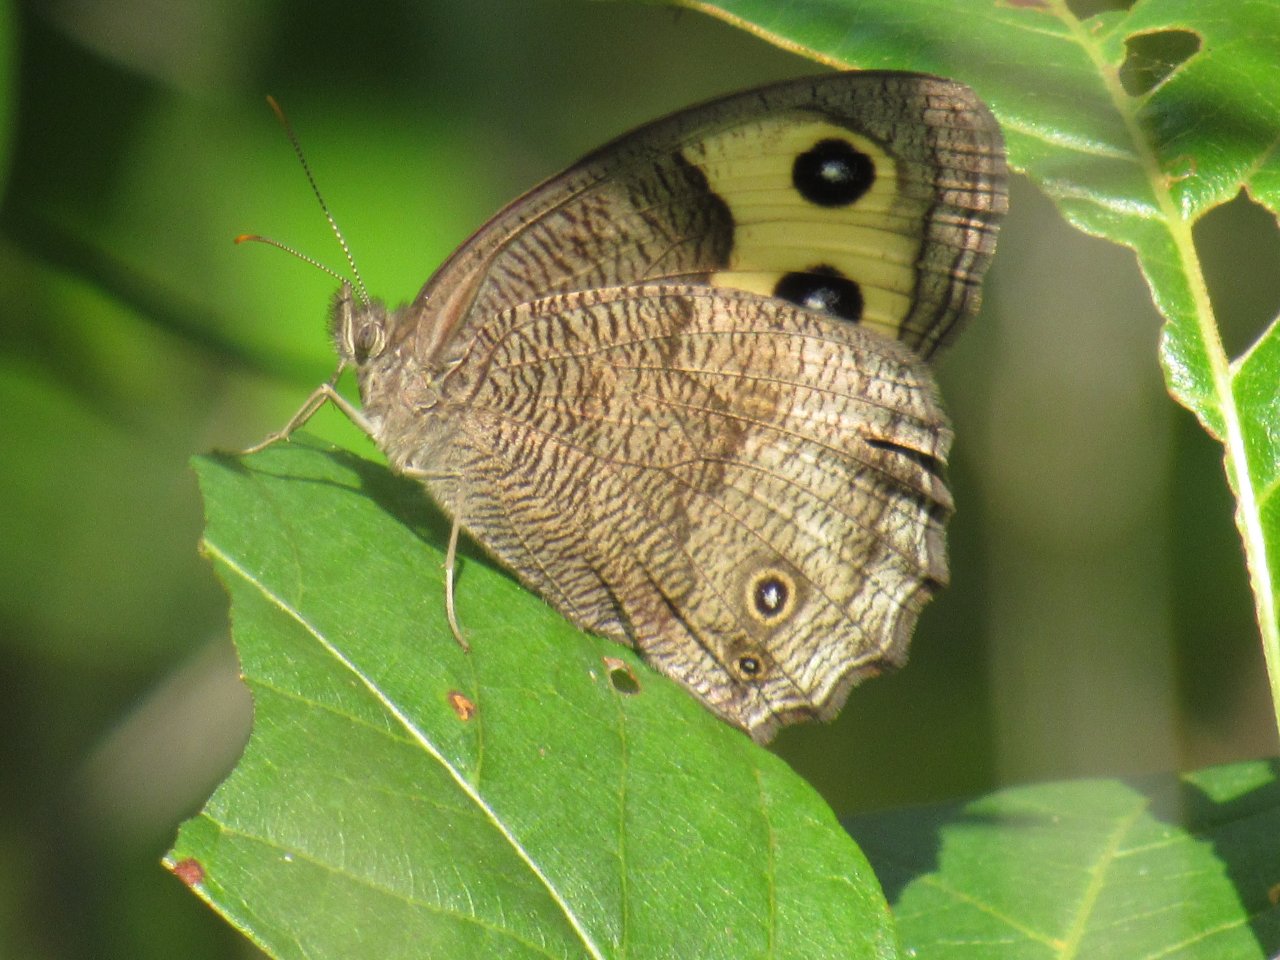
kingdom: Animalia
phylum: Arthropoda
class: Insecta
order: Lepidoptera
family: Nymphalidae
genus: Cercyonis
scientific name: Cercyonis pegala
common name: Common Wood-Nymph
